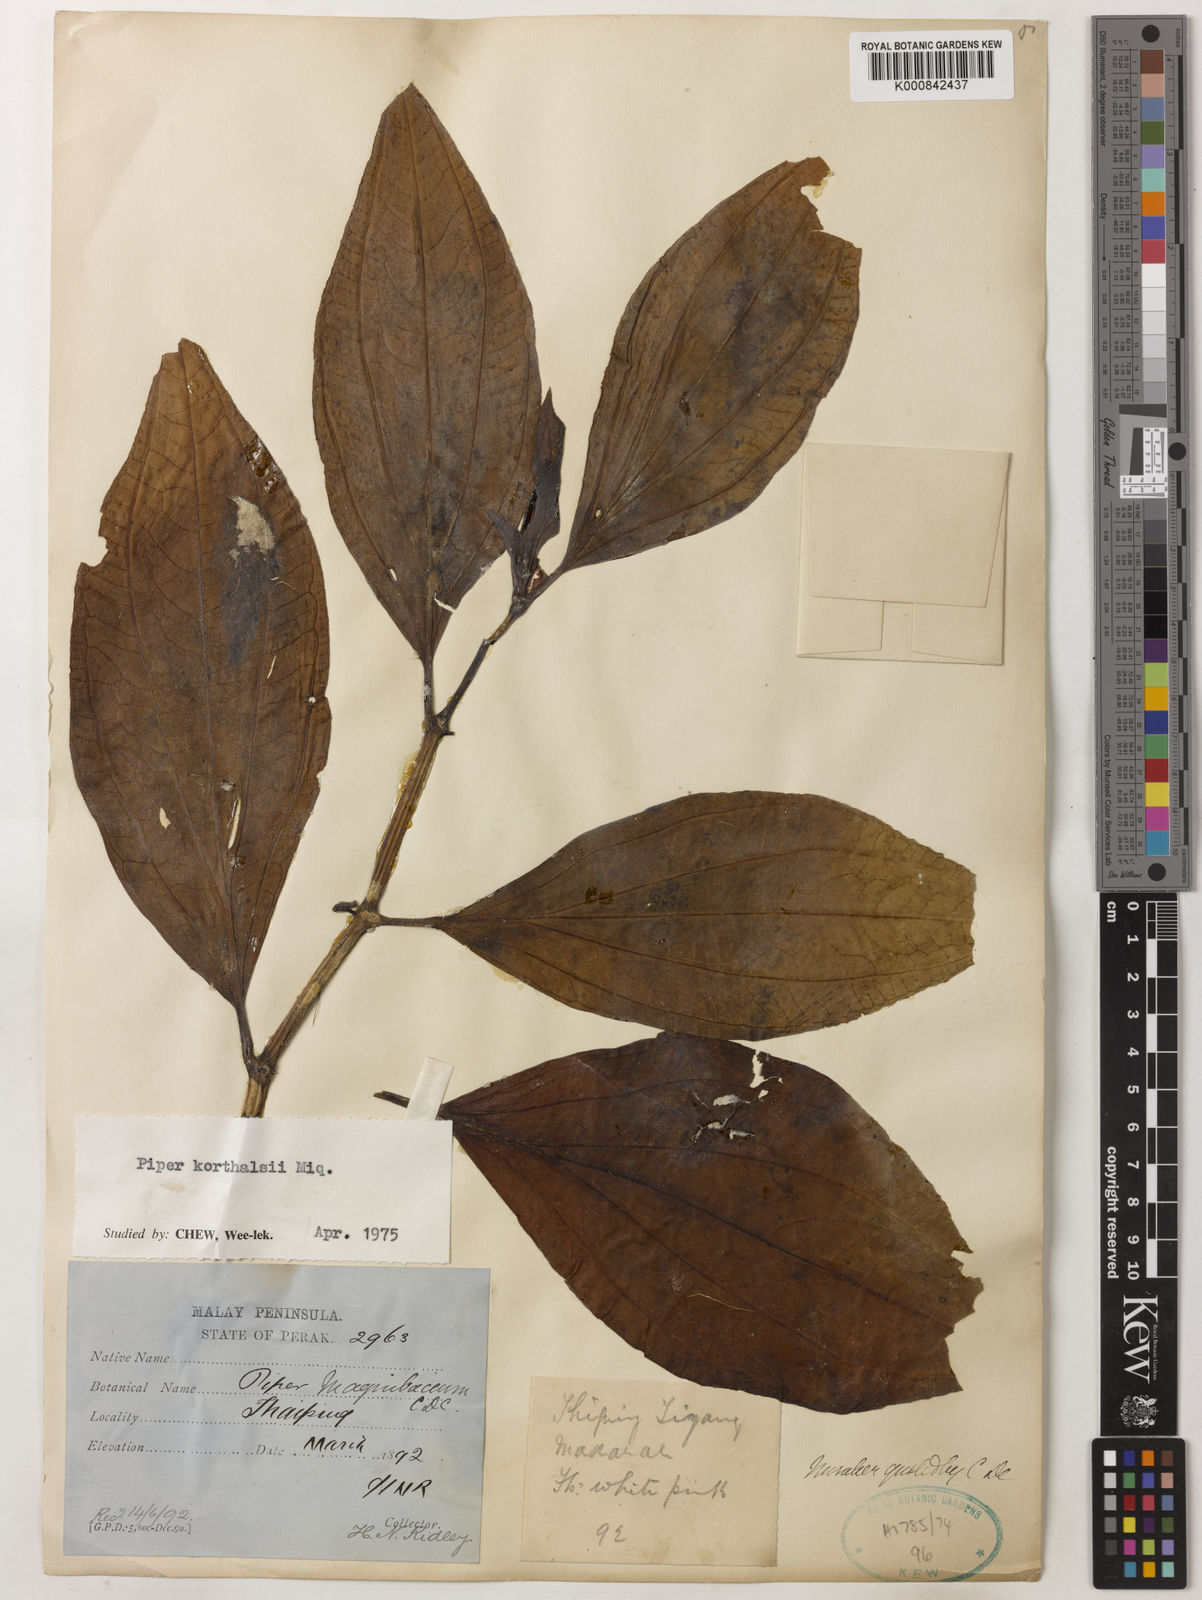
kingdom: Plantae
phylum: Tracheophyta
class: Magnoliopsida
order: Piperales
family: Piperaceae
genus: Piper
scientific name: Piper quinqueangulatum
